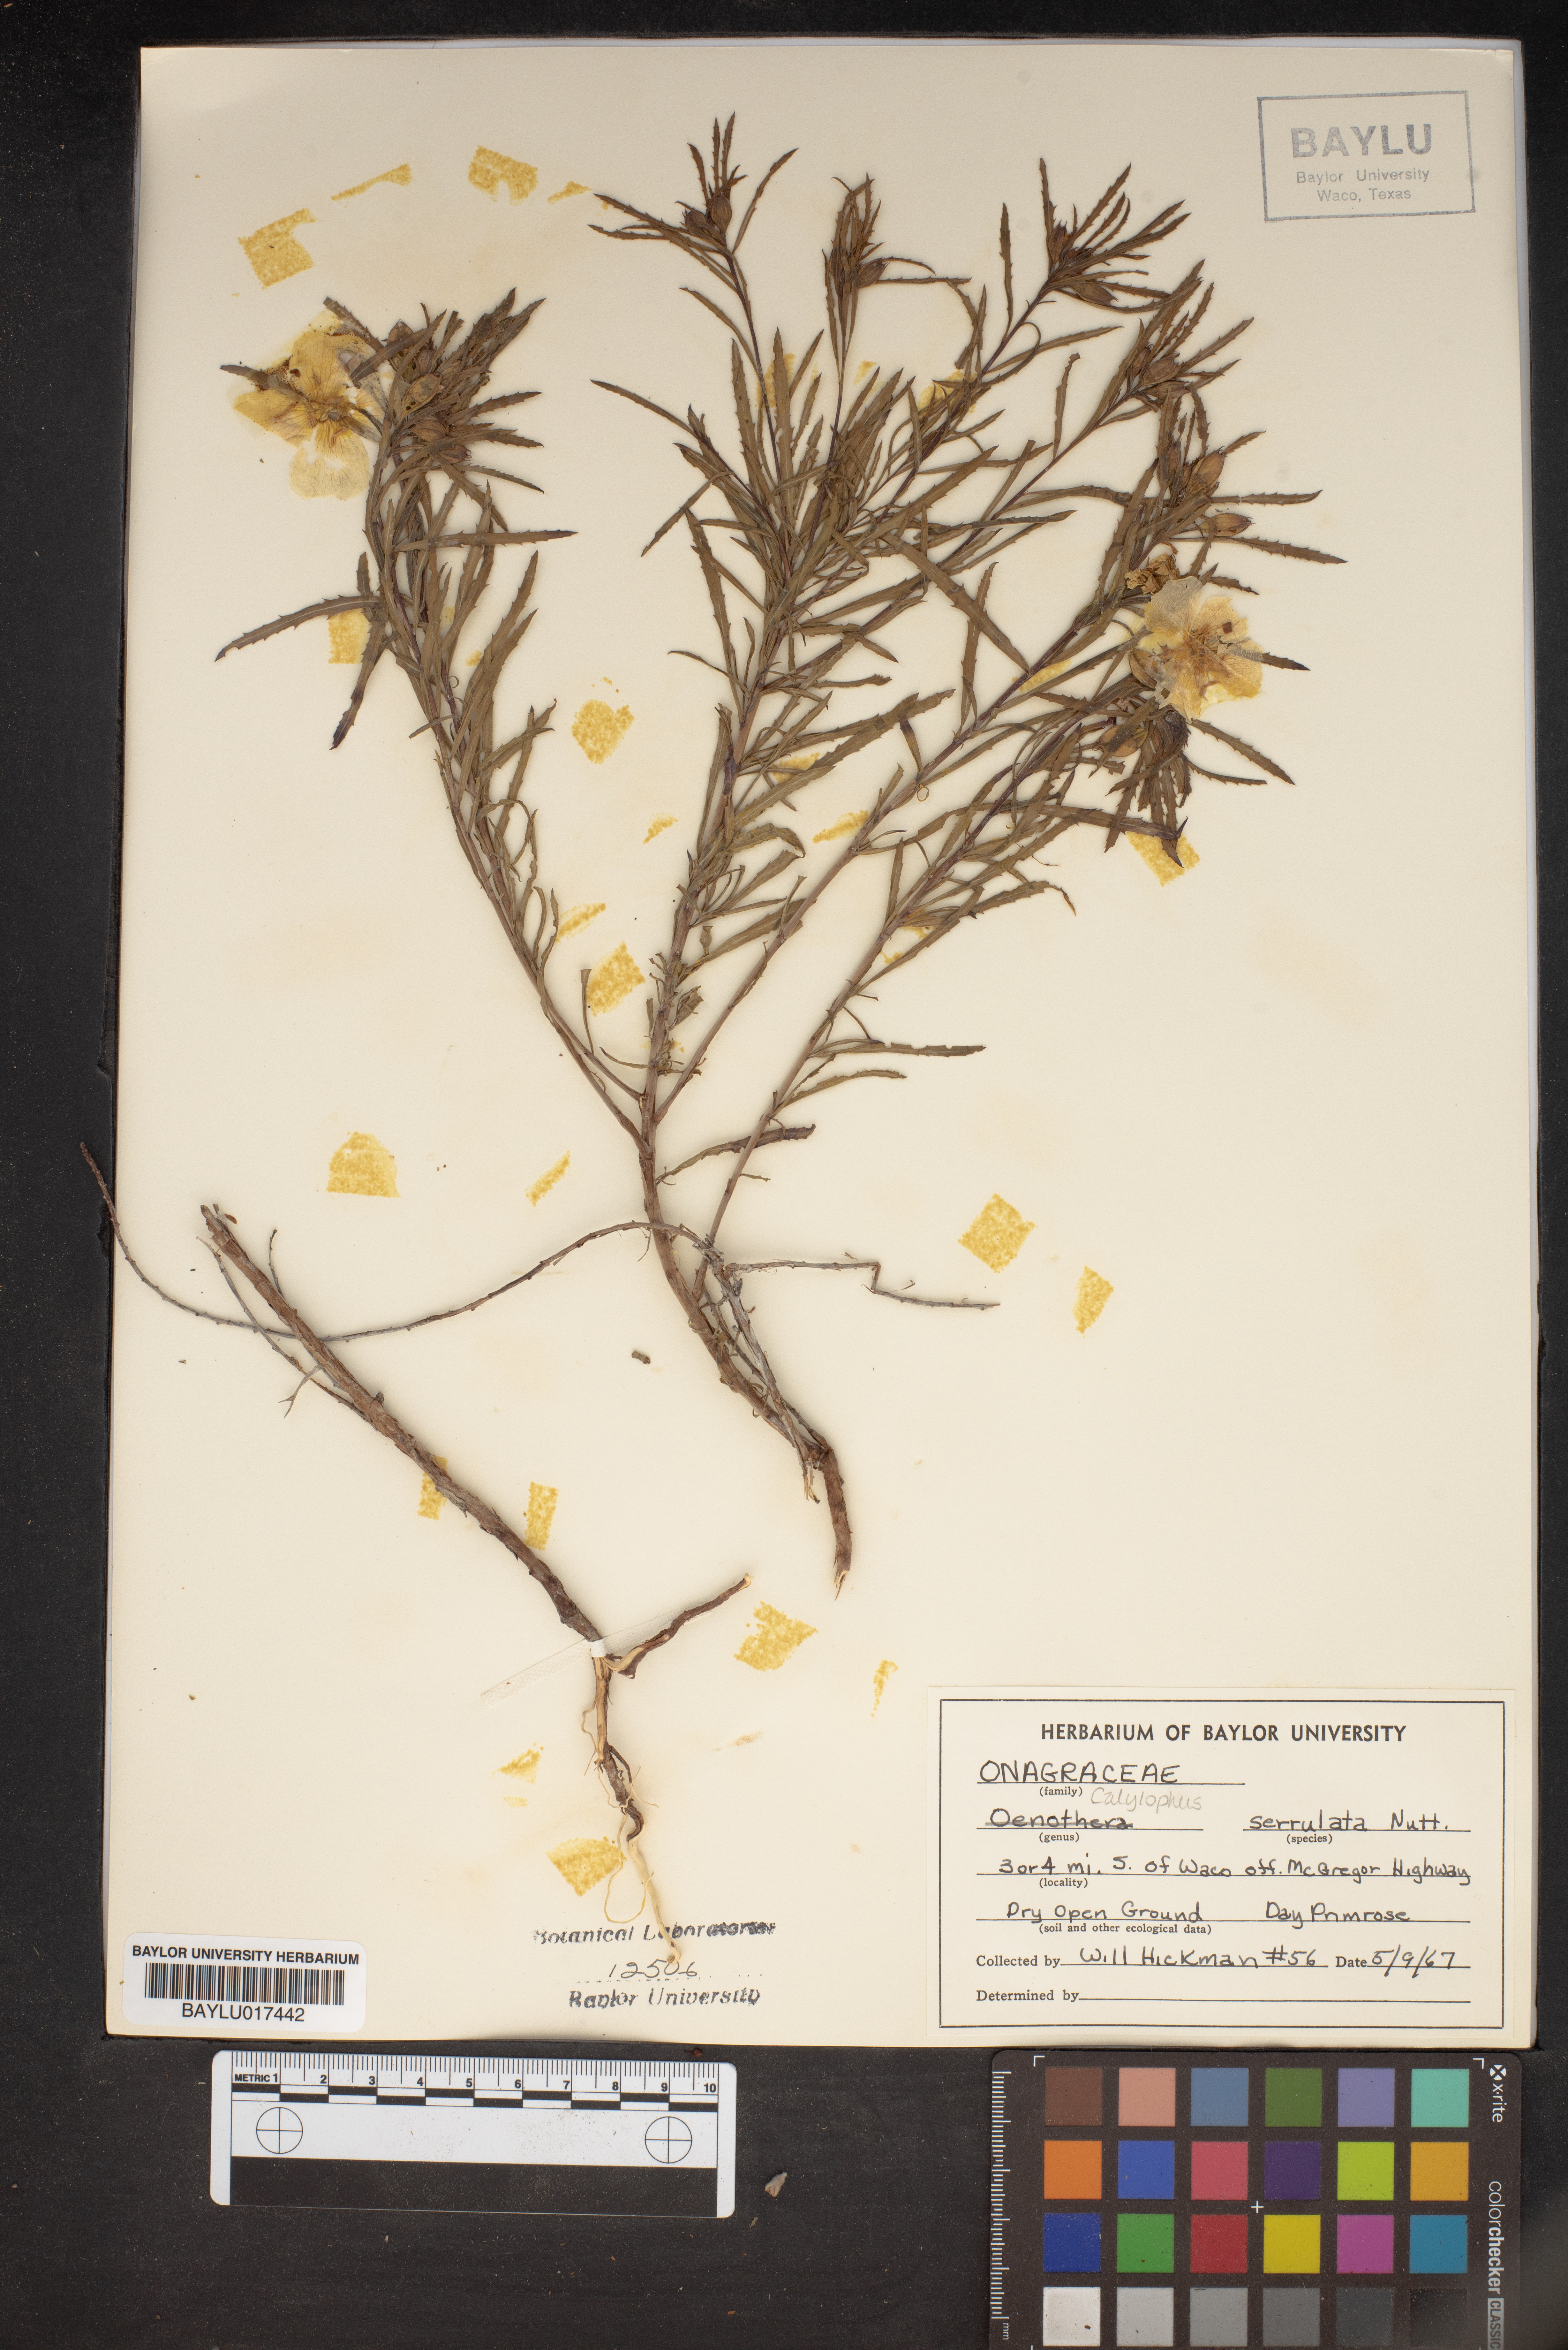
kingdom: Plantae
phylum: Tracheophyta
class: Magnoliopsida
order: Myrtales
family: Onagraceae
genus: Oenothera
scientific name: Oenothera serrulata
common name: Half-shrub calylophus
